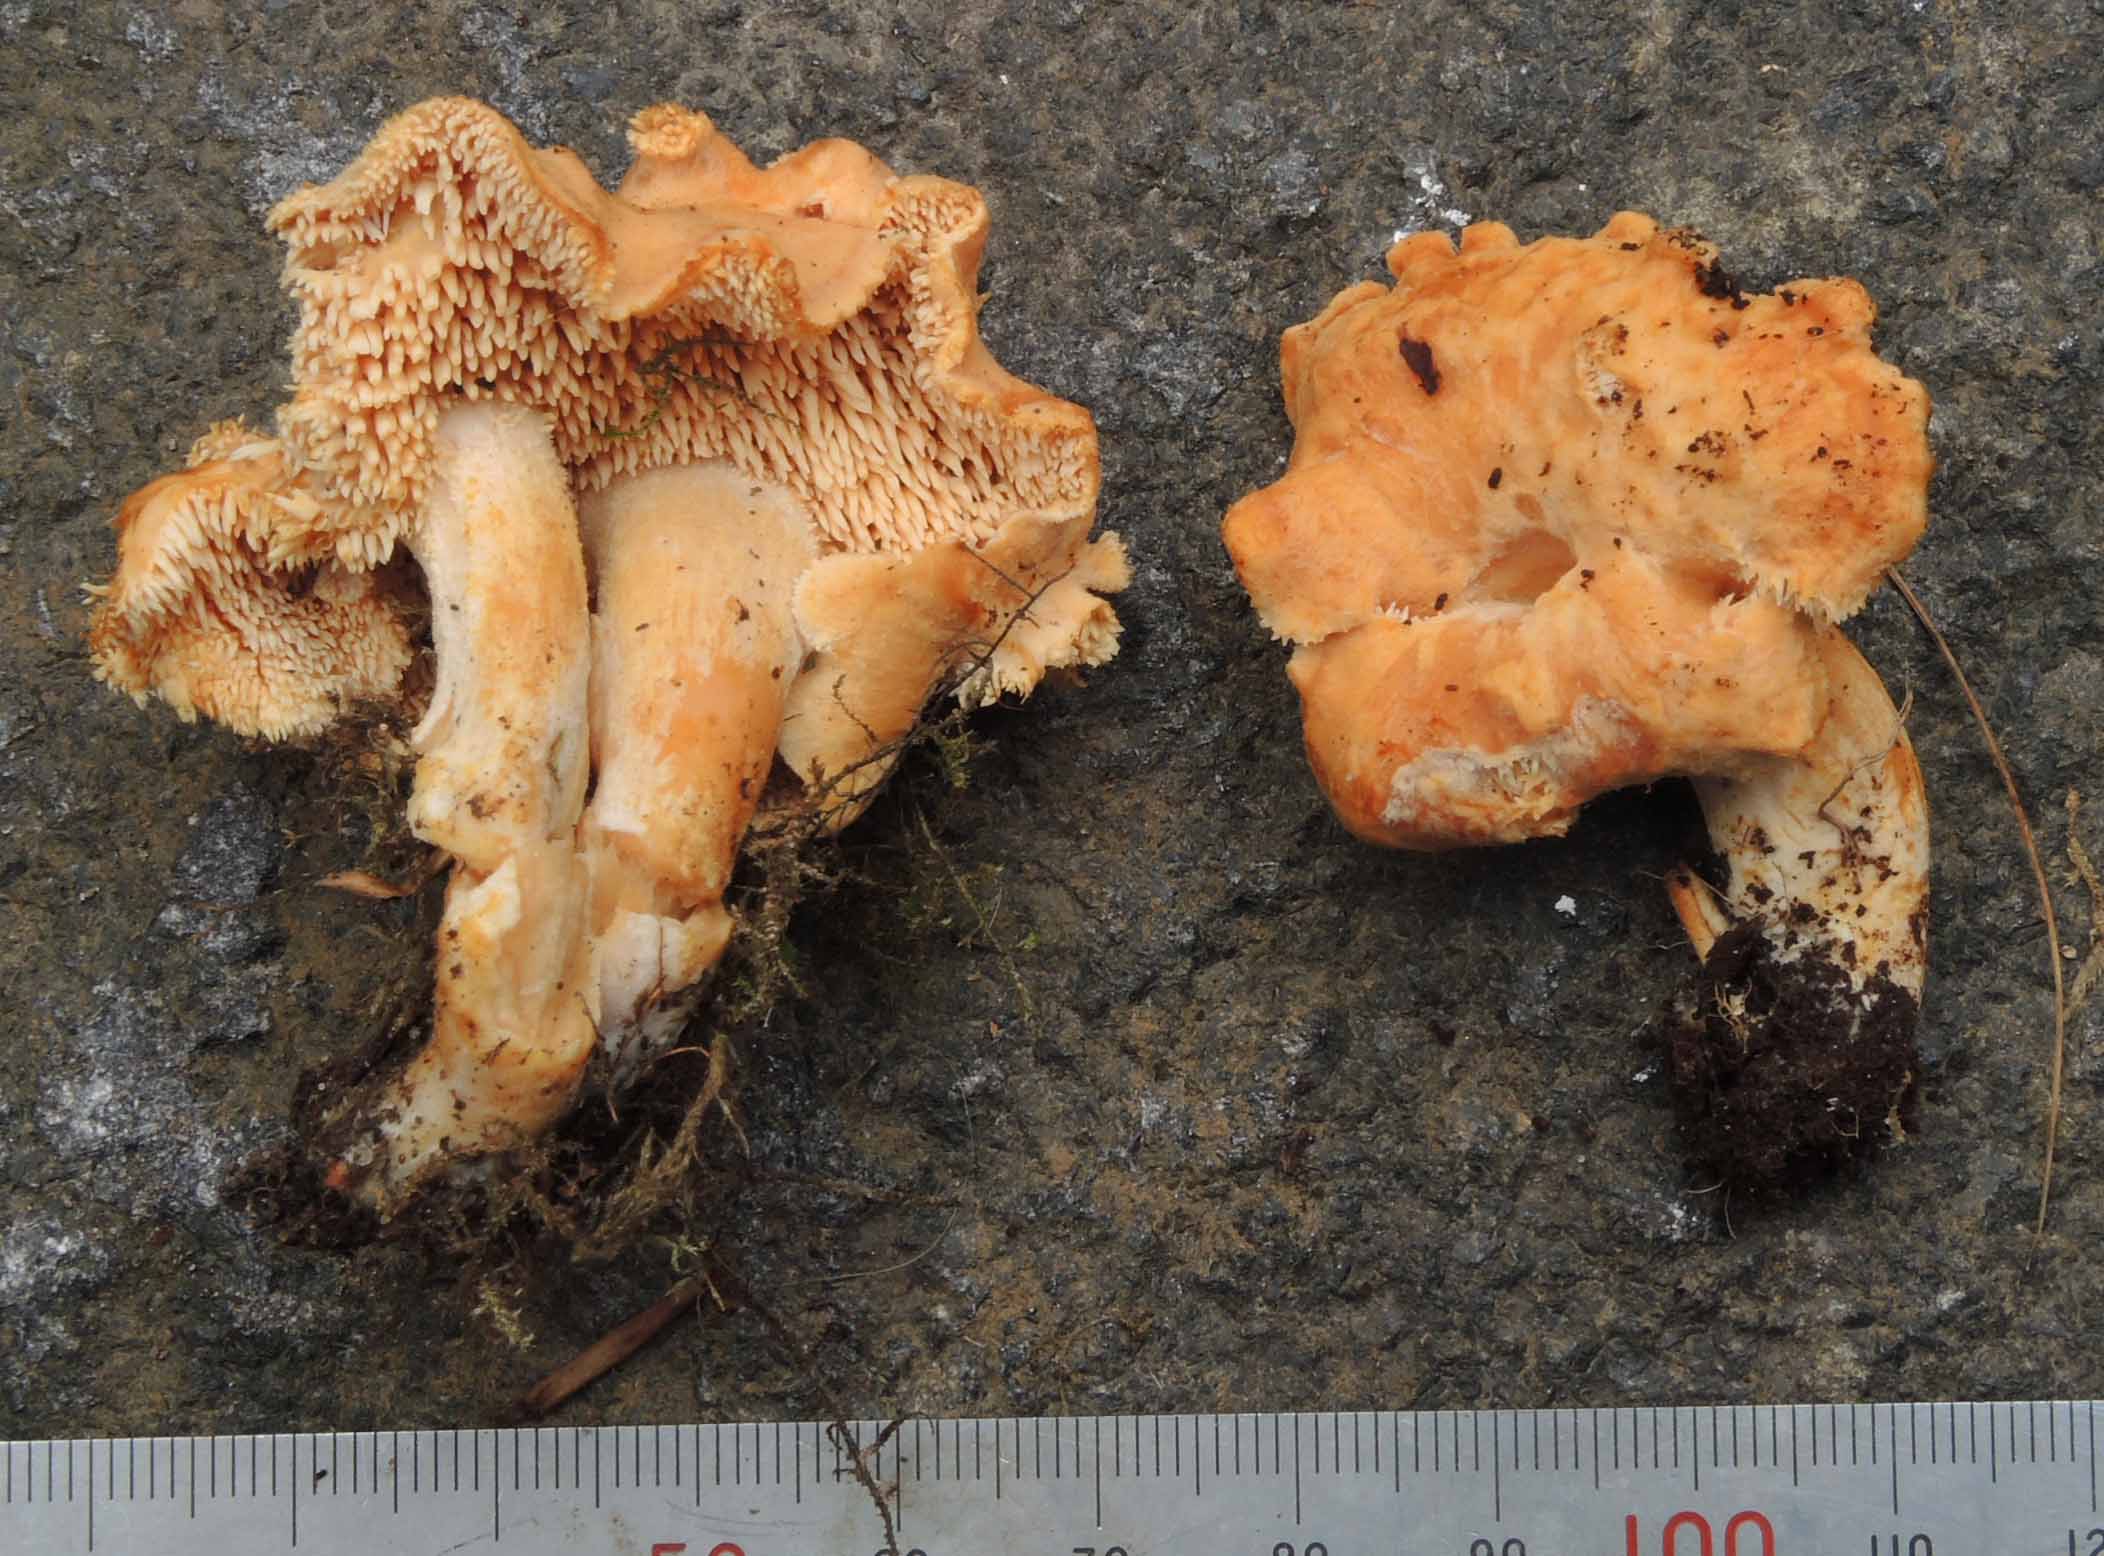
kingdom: Fungi
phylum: Basidiomycota
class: Agaricomycetes
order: Cantharellales
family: Hydnaceae
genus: Hydnum
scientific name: Hydnum umbilicatum
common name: navle-pigsvamp
